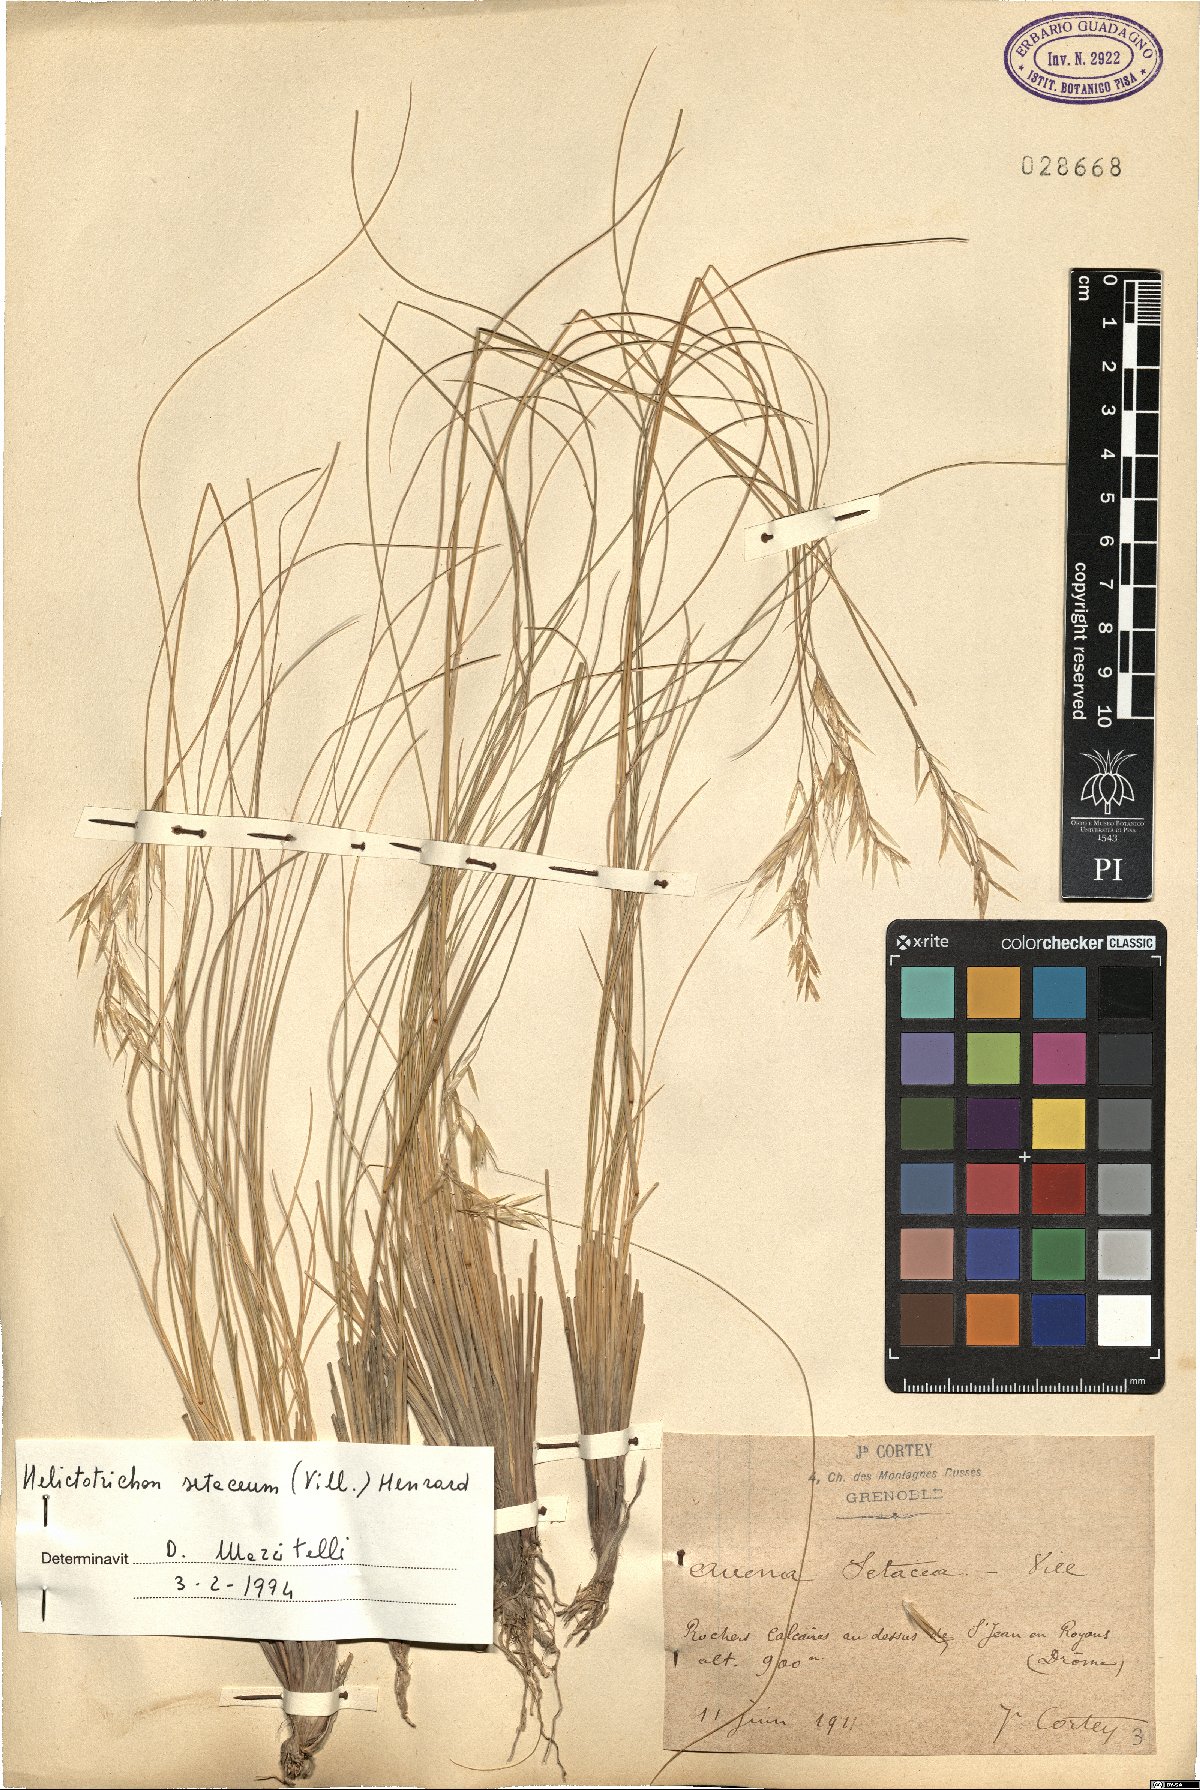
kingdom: Plantae
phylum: Tracheophyta
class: Liliopsida
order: Poales
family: Poaceae
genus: Helictotrichon
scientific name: Helictotrichon setaceum
